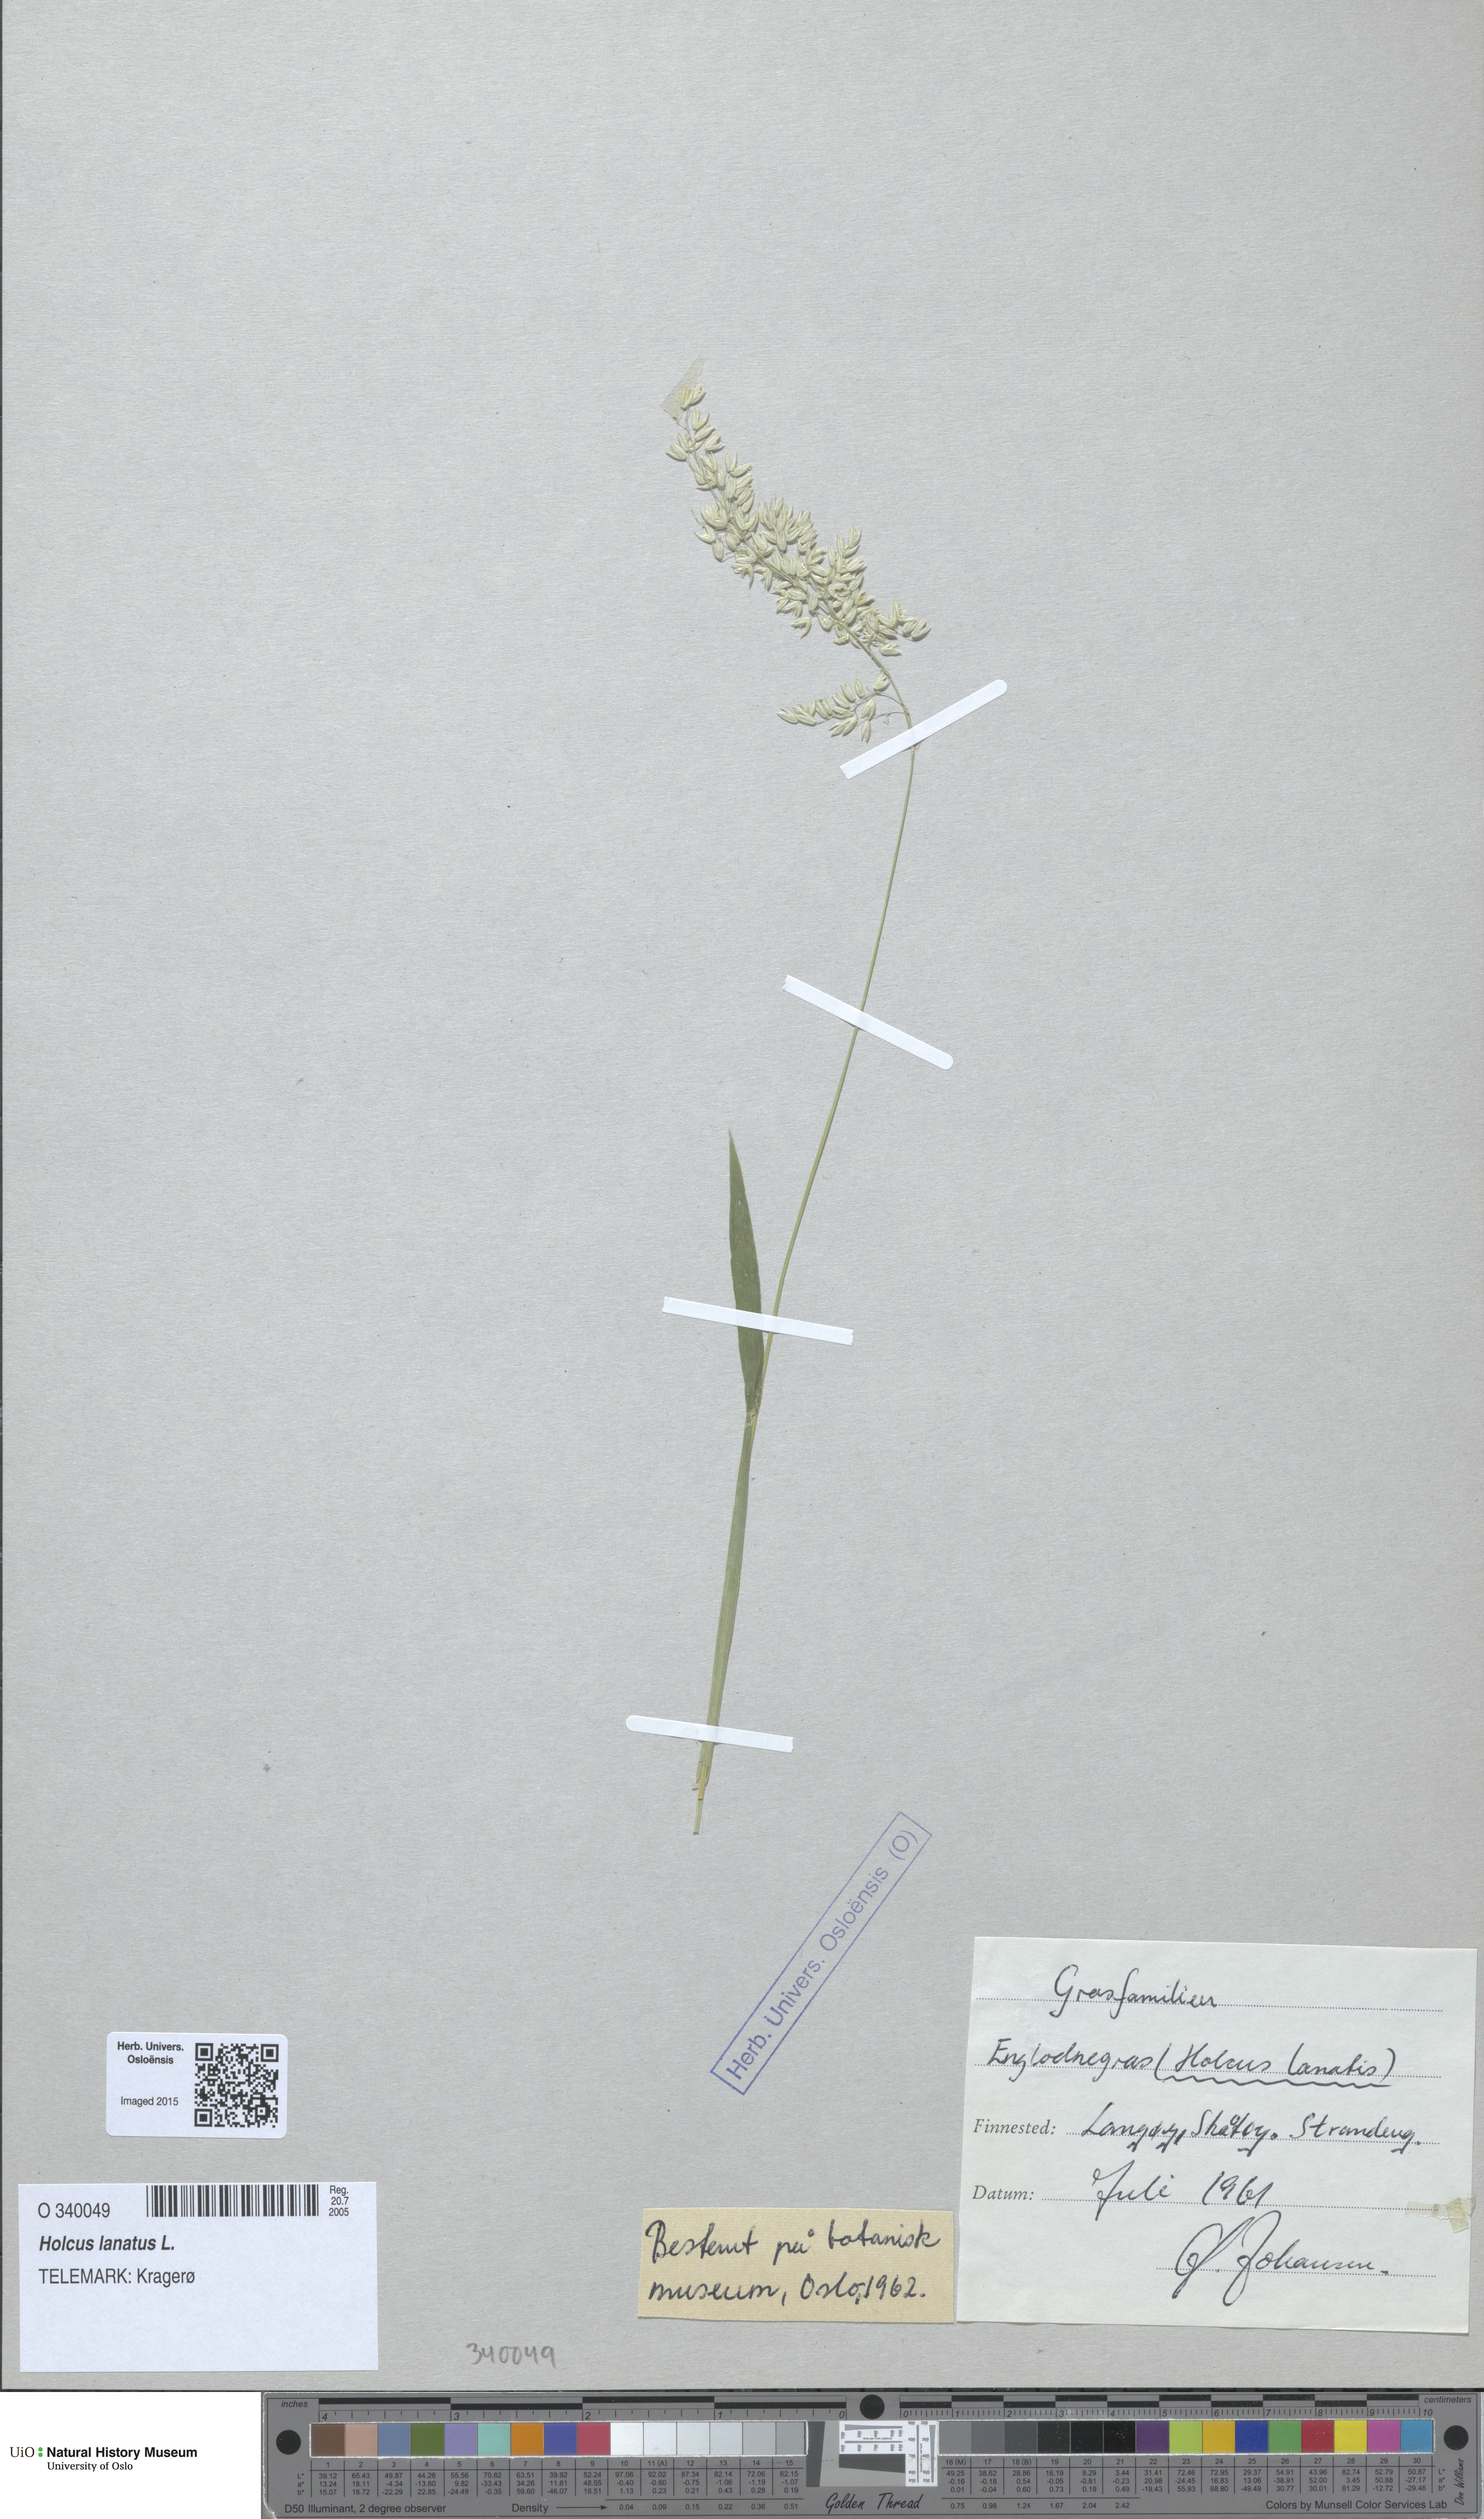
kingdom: Plantae
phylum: Tracheophyta
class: Liliopsida
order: Poales
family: Poaceae
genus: Holcus
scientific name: Holcus lanatus
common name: Yorkshire-fog
